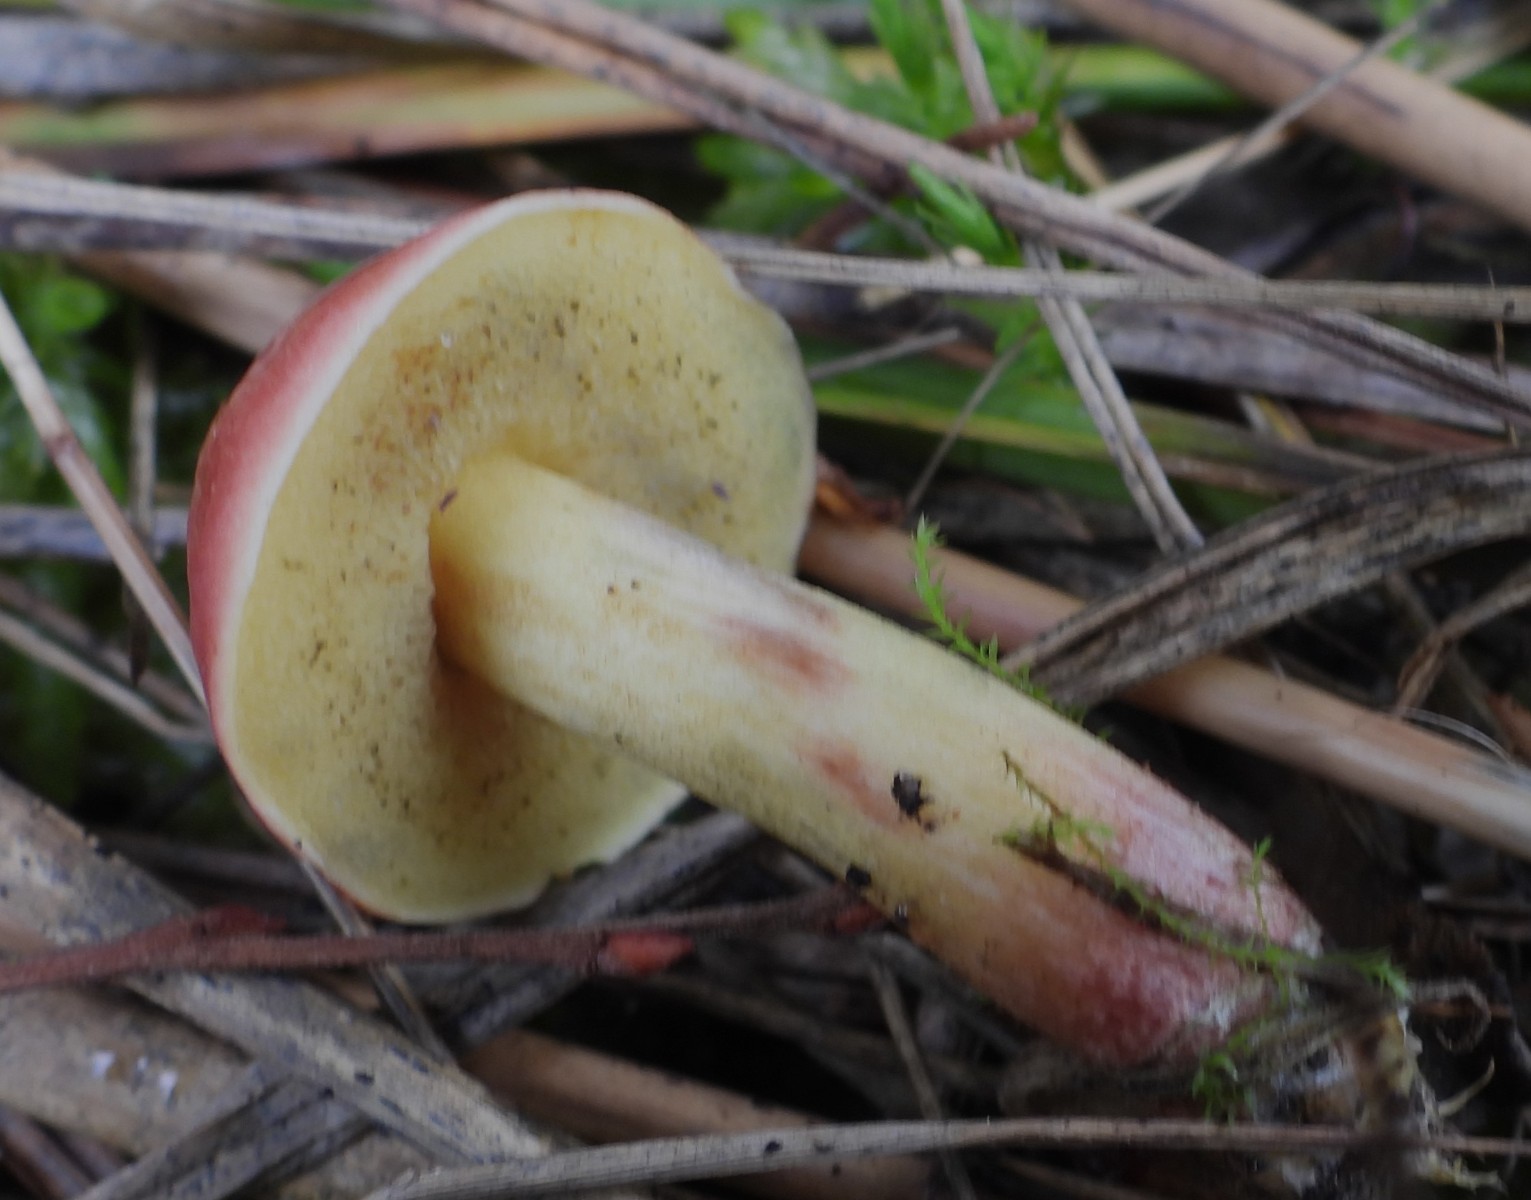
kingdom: Fungi
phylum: Basidiomycota
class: Agaricomycetes
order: Boletales
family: Boletaceae
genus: Hortiboletus
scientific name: Hortiboletus rubellus
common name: blodrød rørhat
